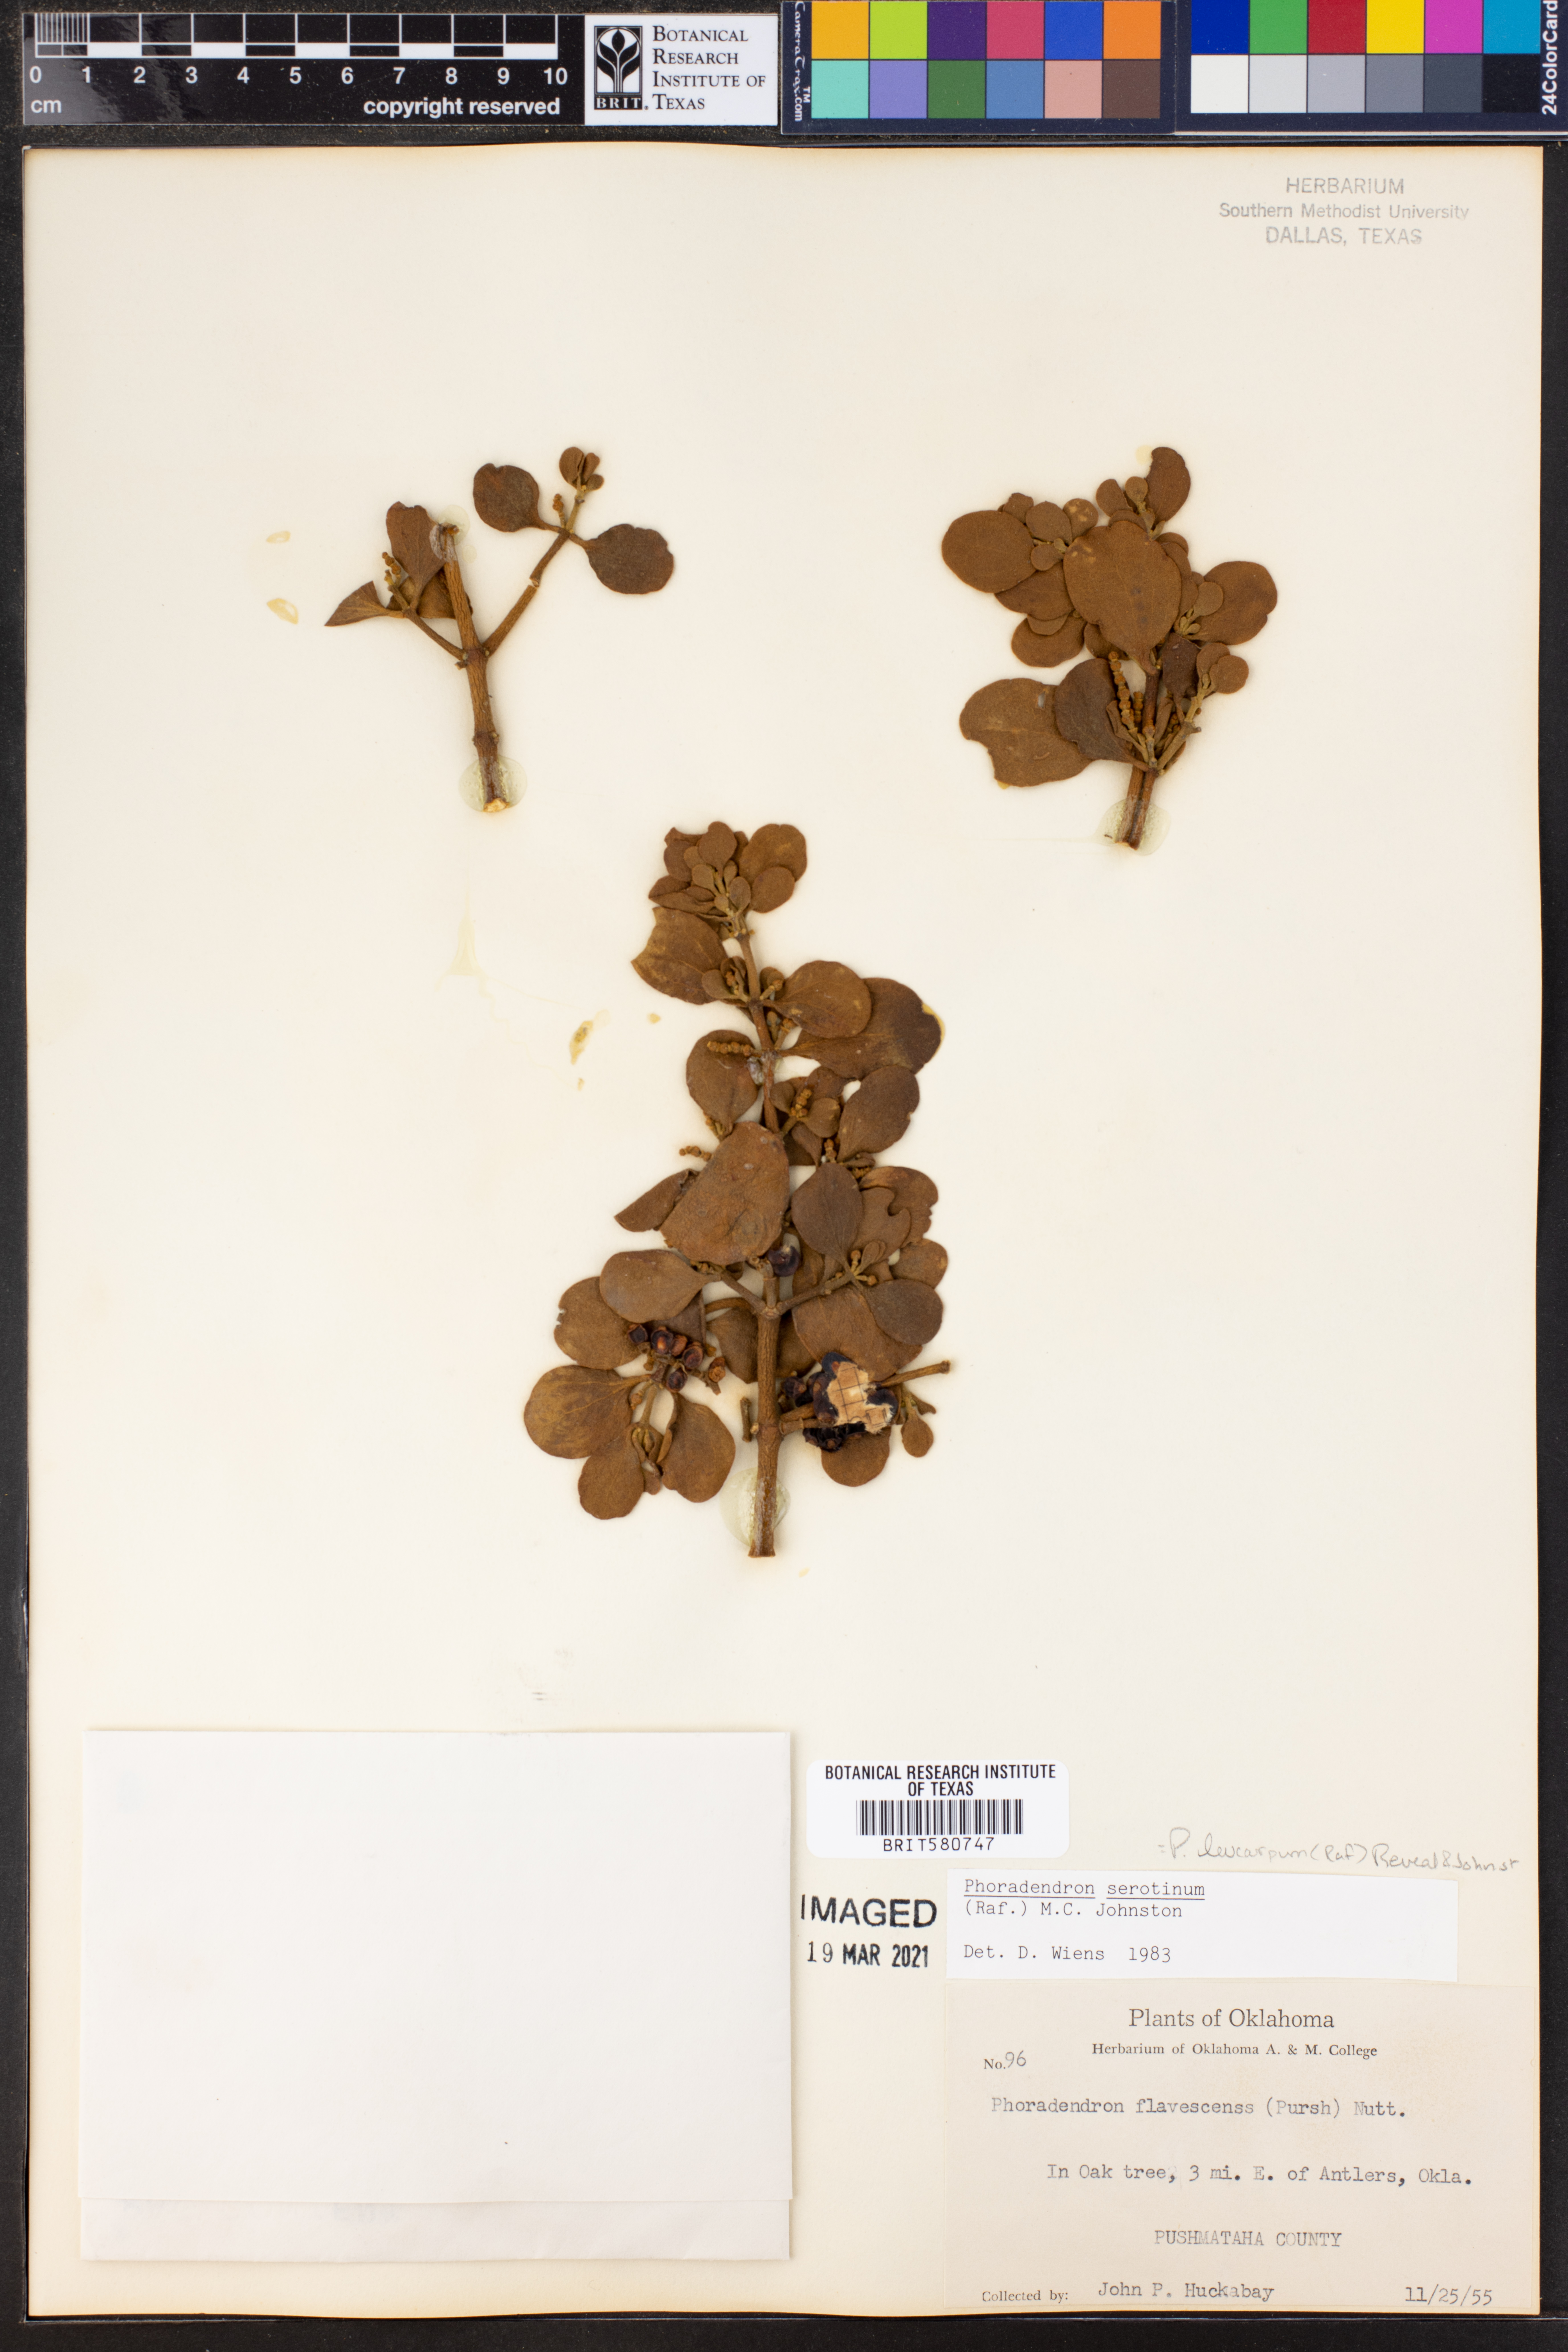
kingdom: Plantae
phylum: Tracheophyta
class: Magnoliopsida
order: Santalales
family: Viscaceae
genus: Phoradendron
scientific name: Phoradendron leucarpum
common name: Pacific mistletoe
